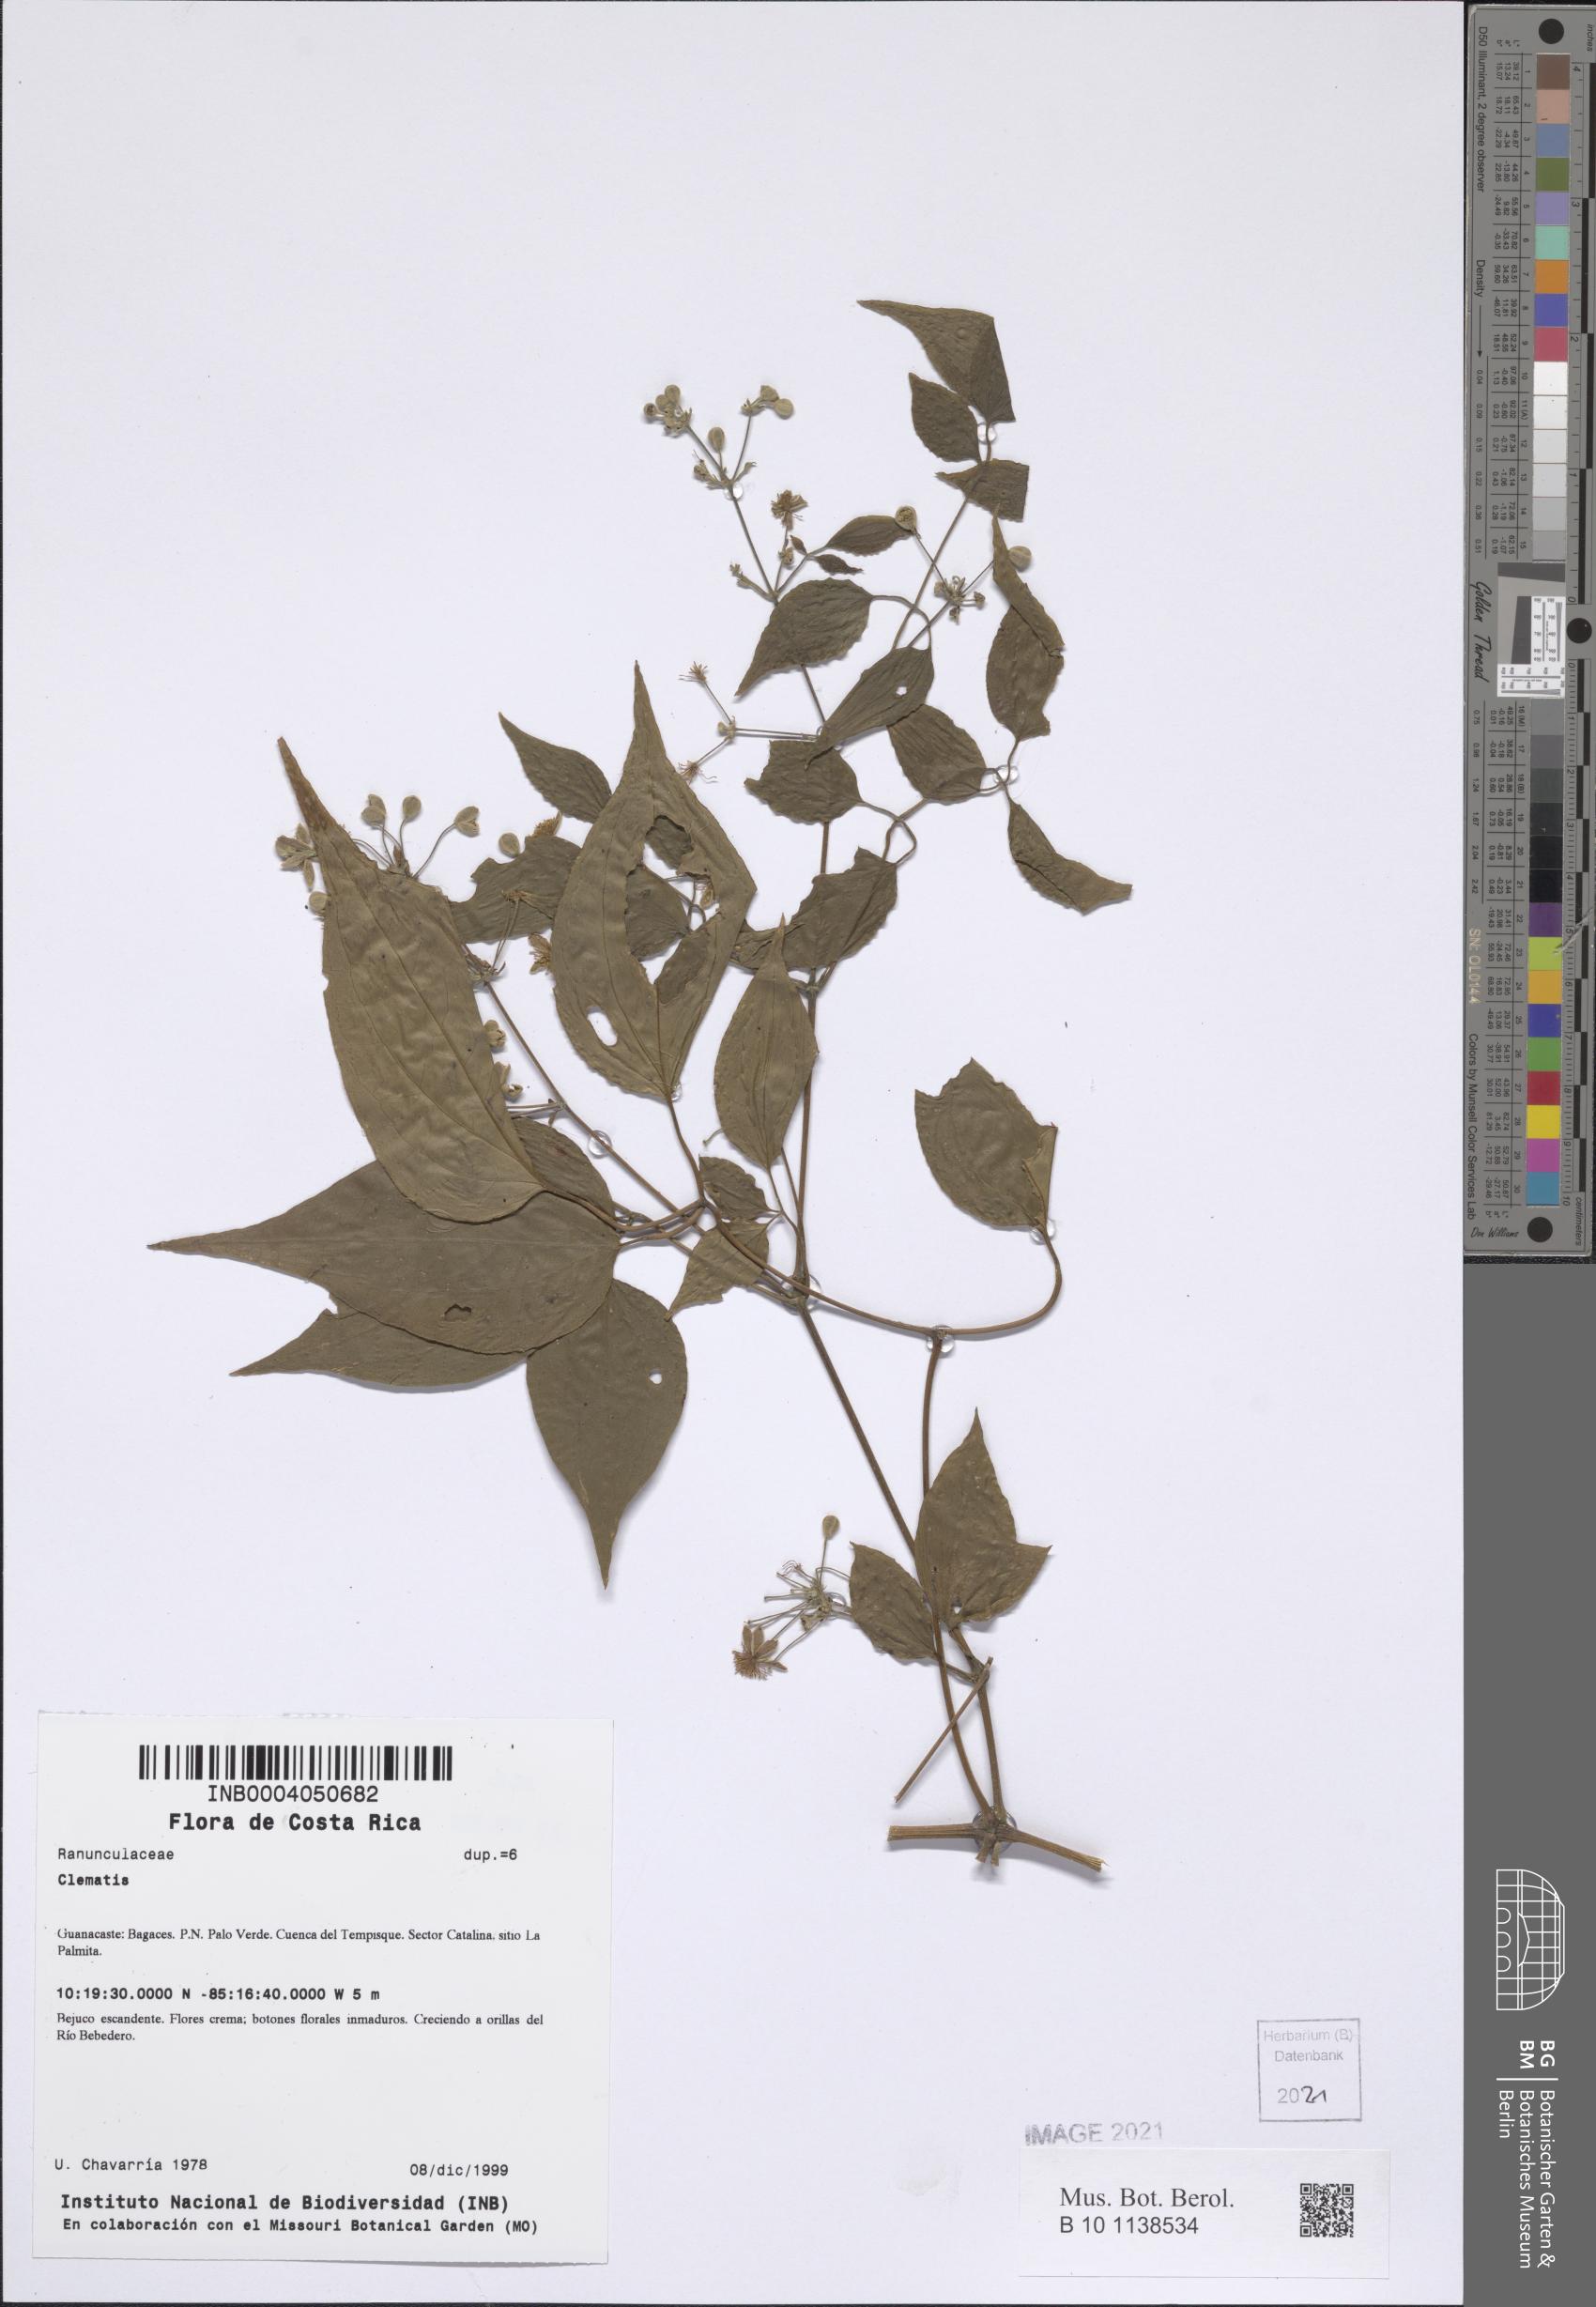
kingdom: Plantae
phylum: Tracheophyta
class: Magnoliopsida
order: Ranunculales
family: Ranunculaceae
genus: Clematis
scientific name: Clematis
